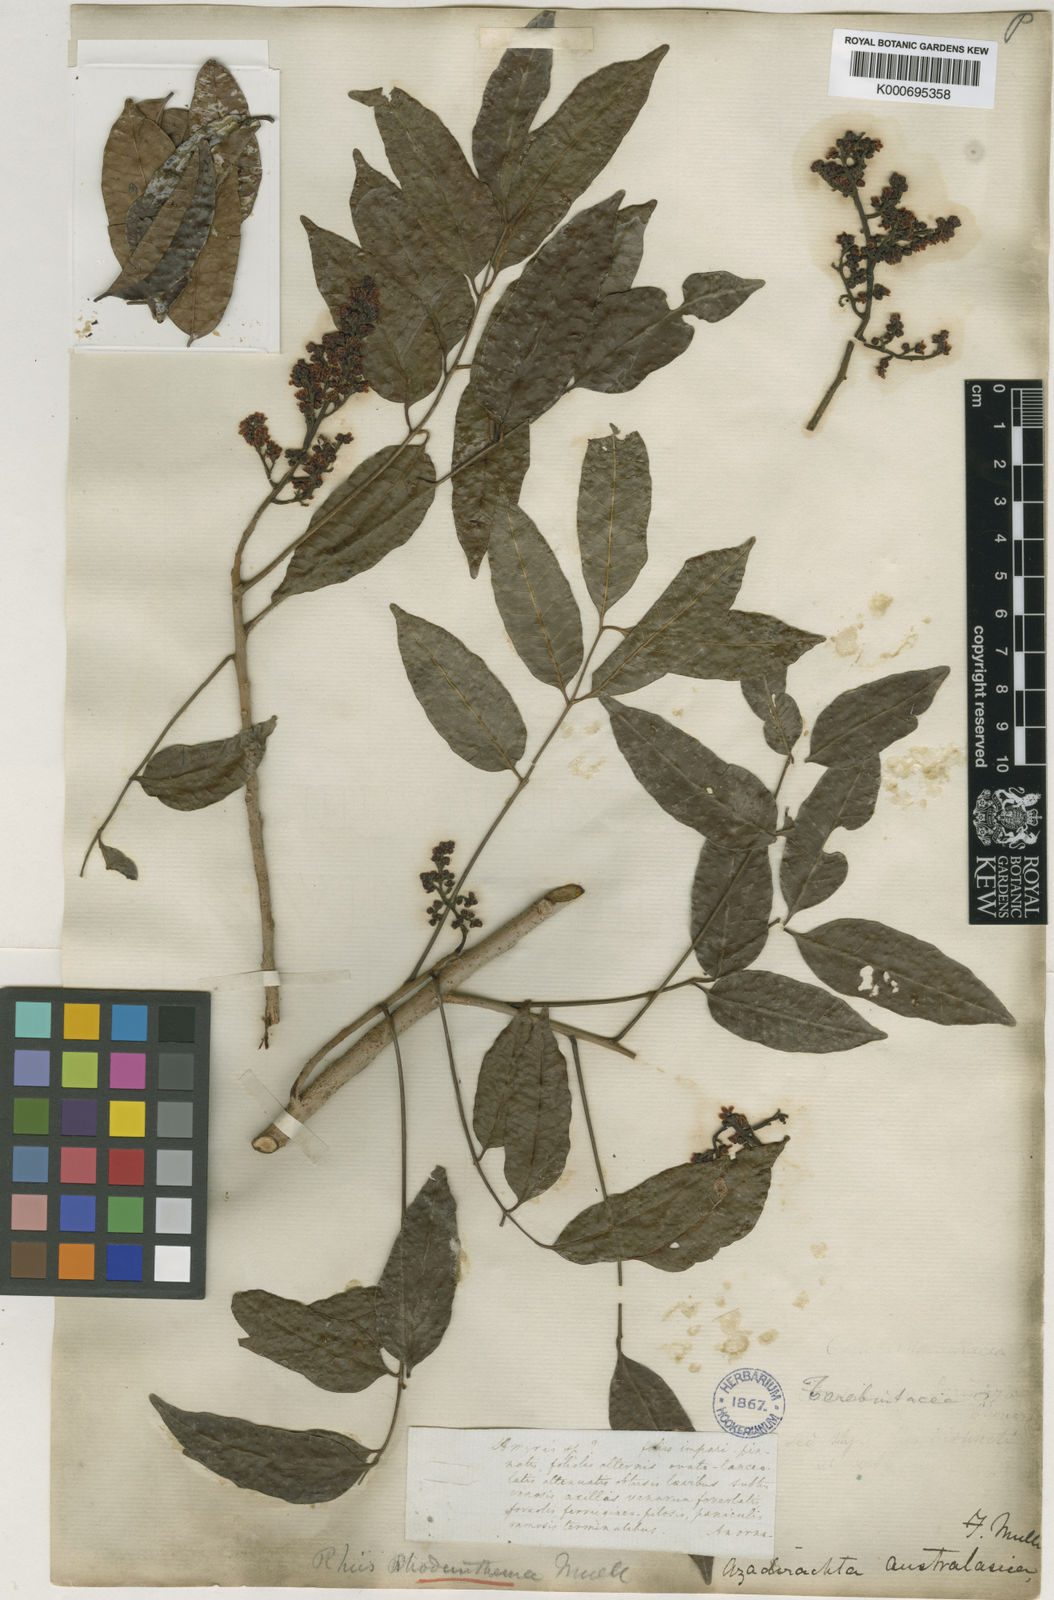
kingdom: Plantae
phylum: Tracheophyta
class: Magnoliopsida
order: Sapindales
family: Anacardiaceae
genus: Rhodosphaera
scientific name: Rhodosphaera rhodanthema
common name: Tulip satinwood
